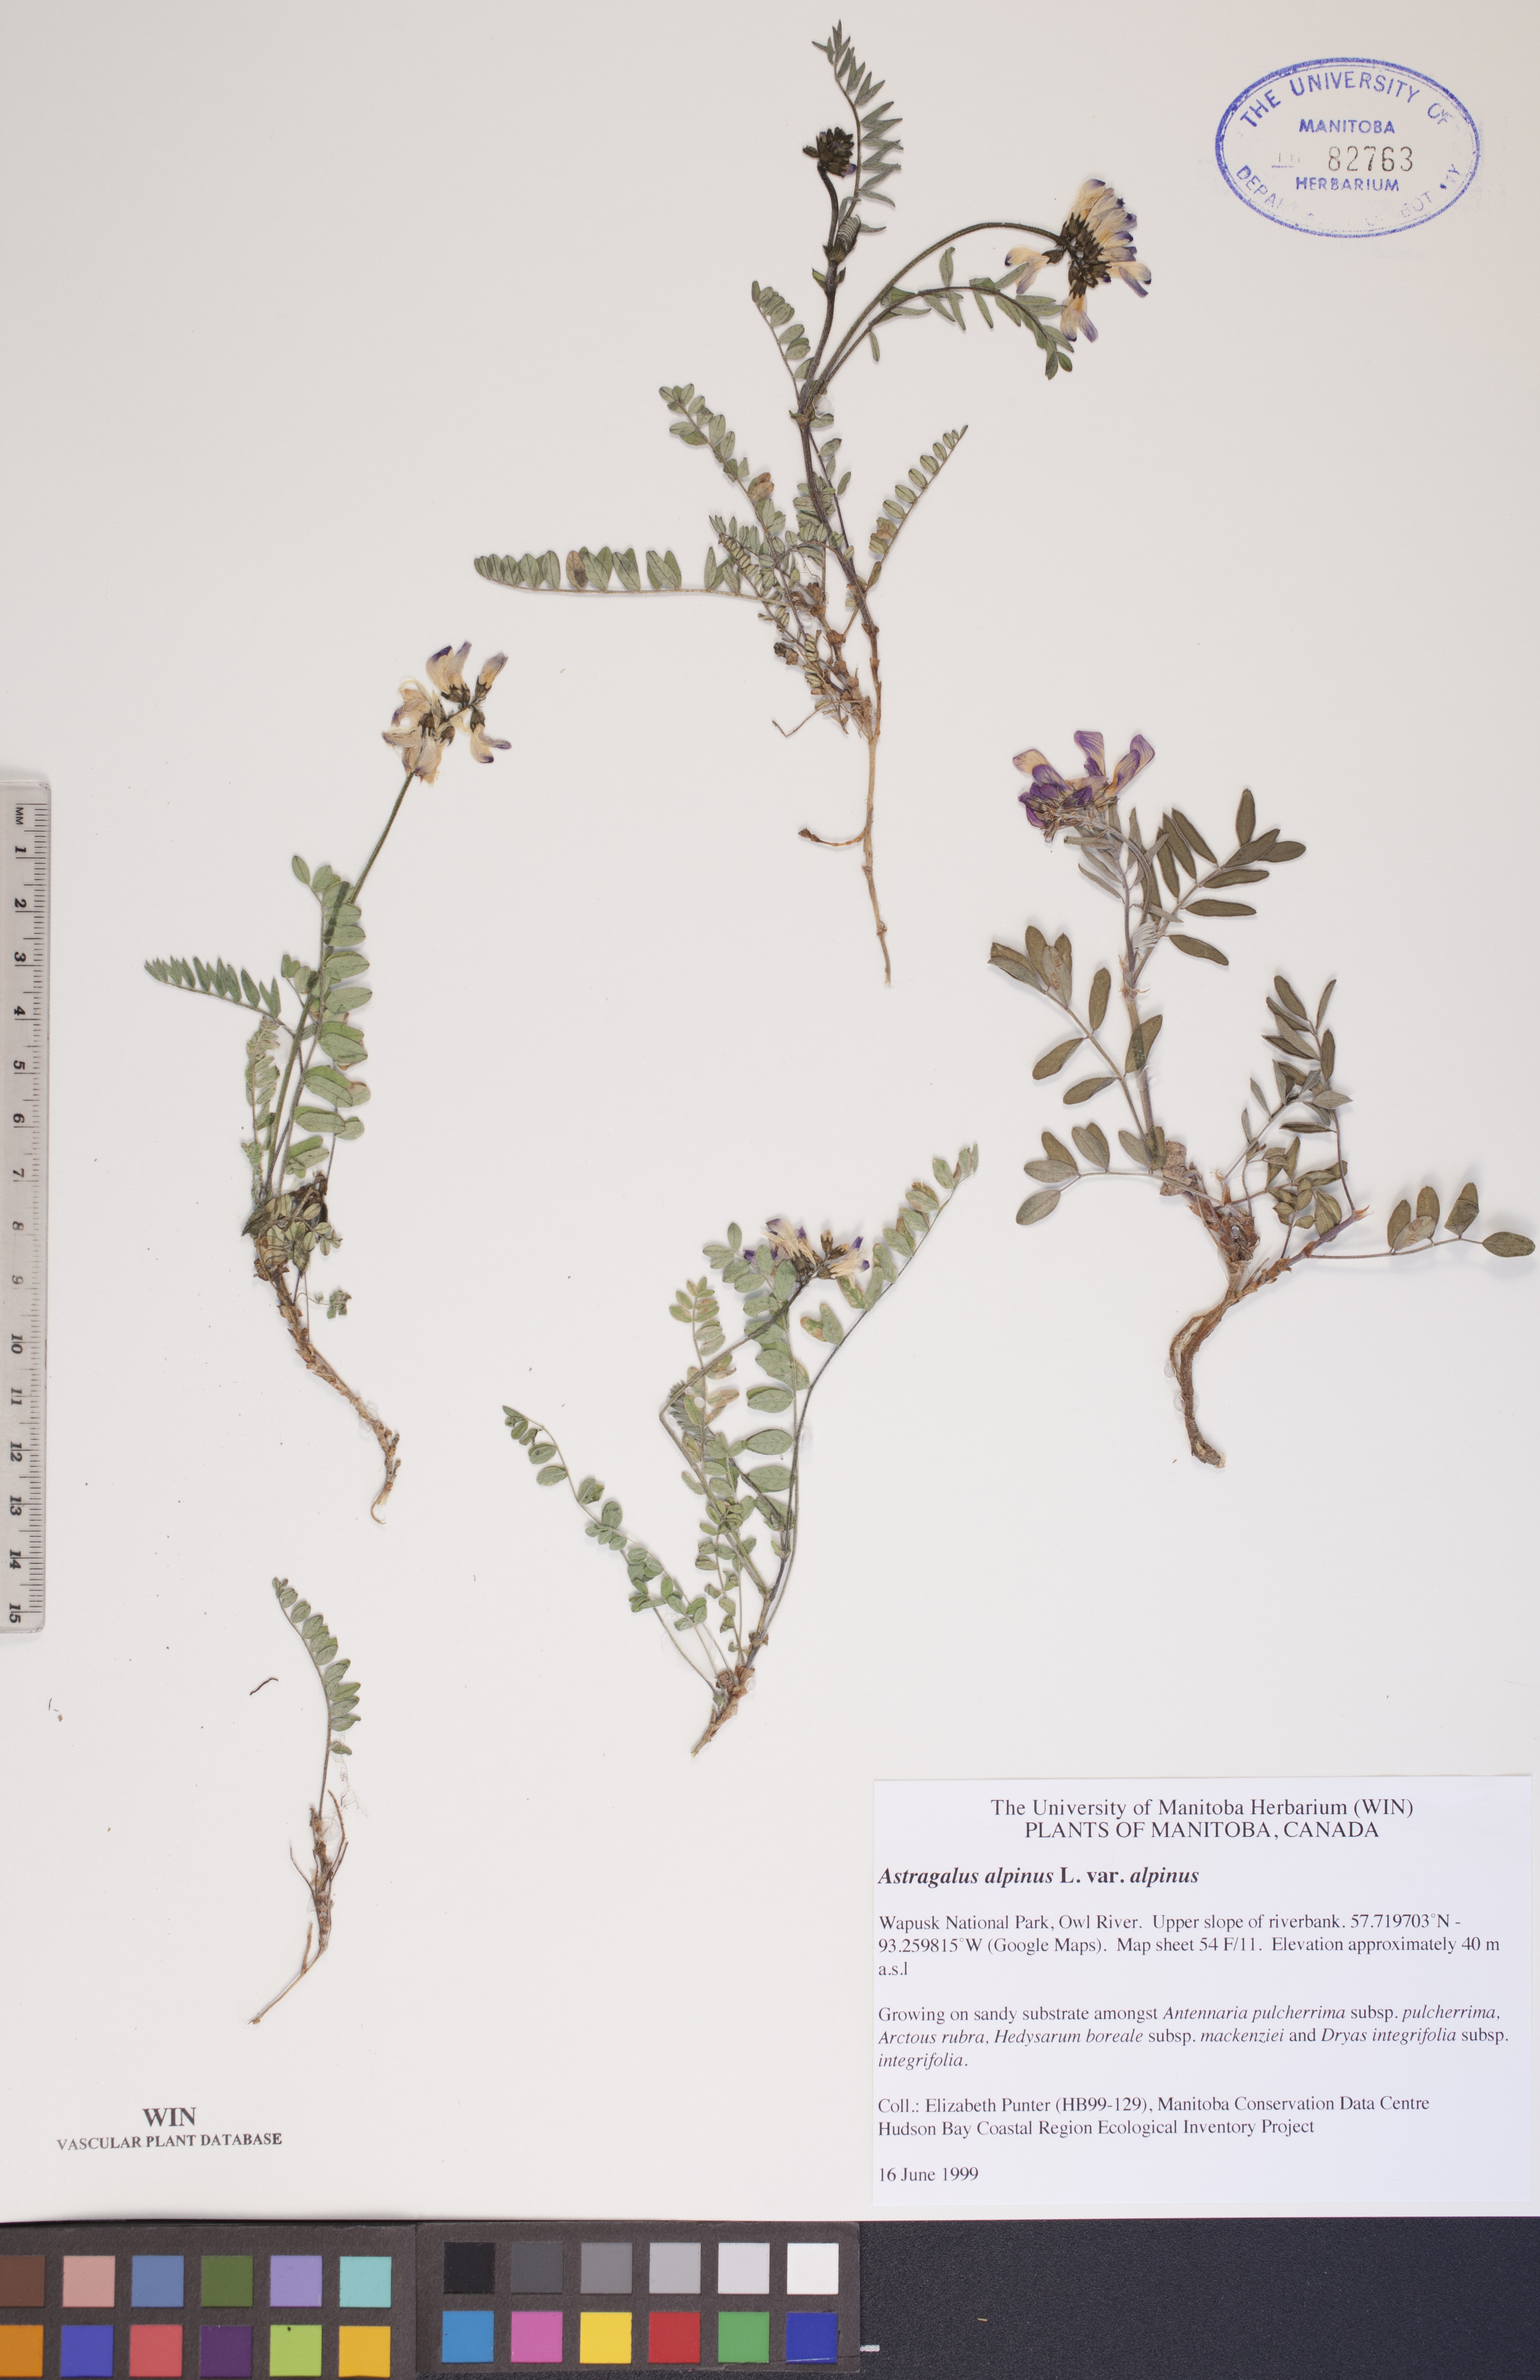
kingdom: Plantae
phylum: Tracheophyta
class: Magnoliopsida
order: Fabales
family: Fabaceae
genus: Astragalus
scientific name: Astragalus alpinus
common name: Alpine milk-vetch
